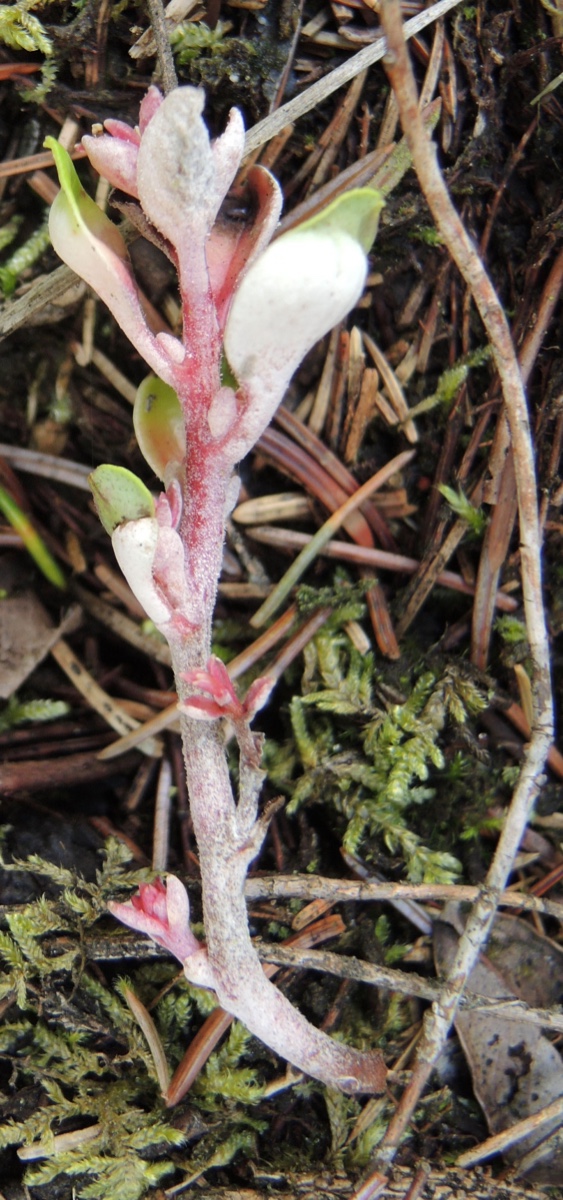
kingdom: Fungi
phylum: Basidiomycota
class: Exobasidiomycetes
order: Exobasidiales
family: Exobasidiaceae
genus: Exobasidium
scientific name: Exobasidium vaccinii
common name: tyttebærblad-bøllesvamp
